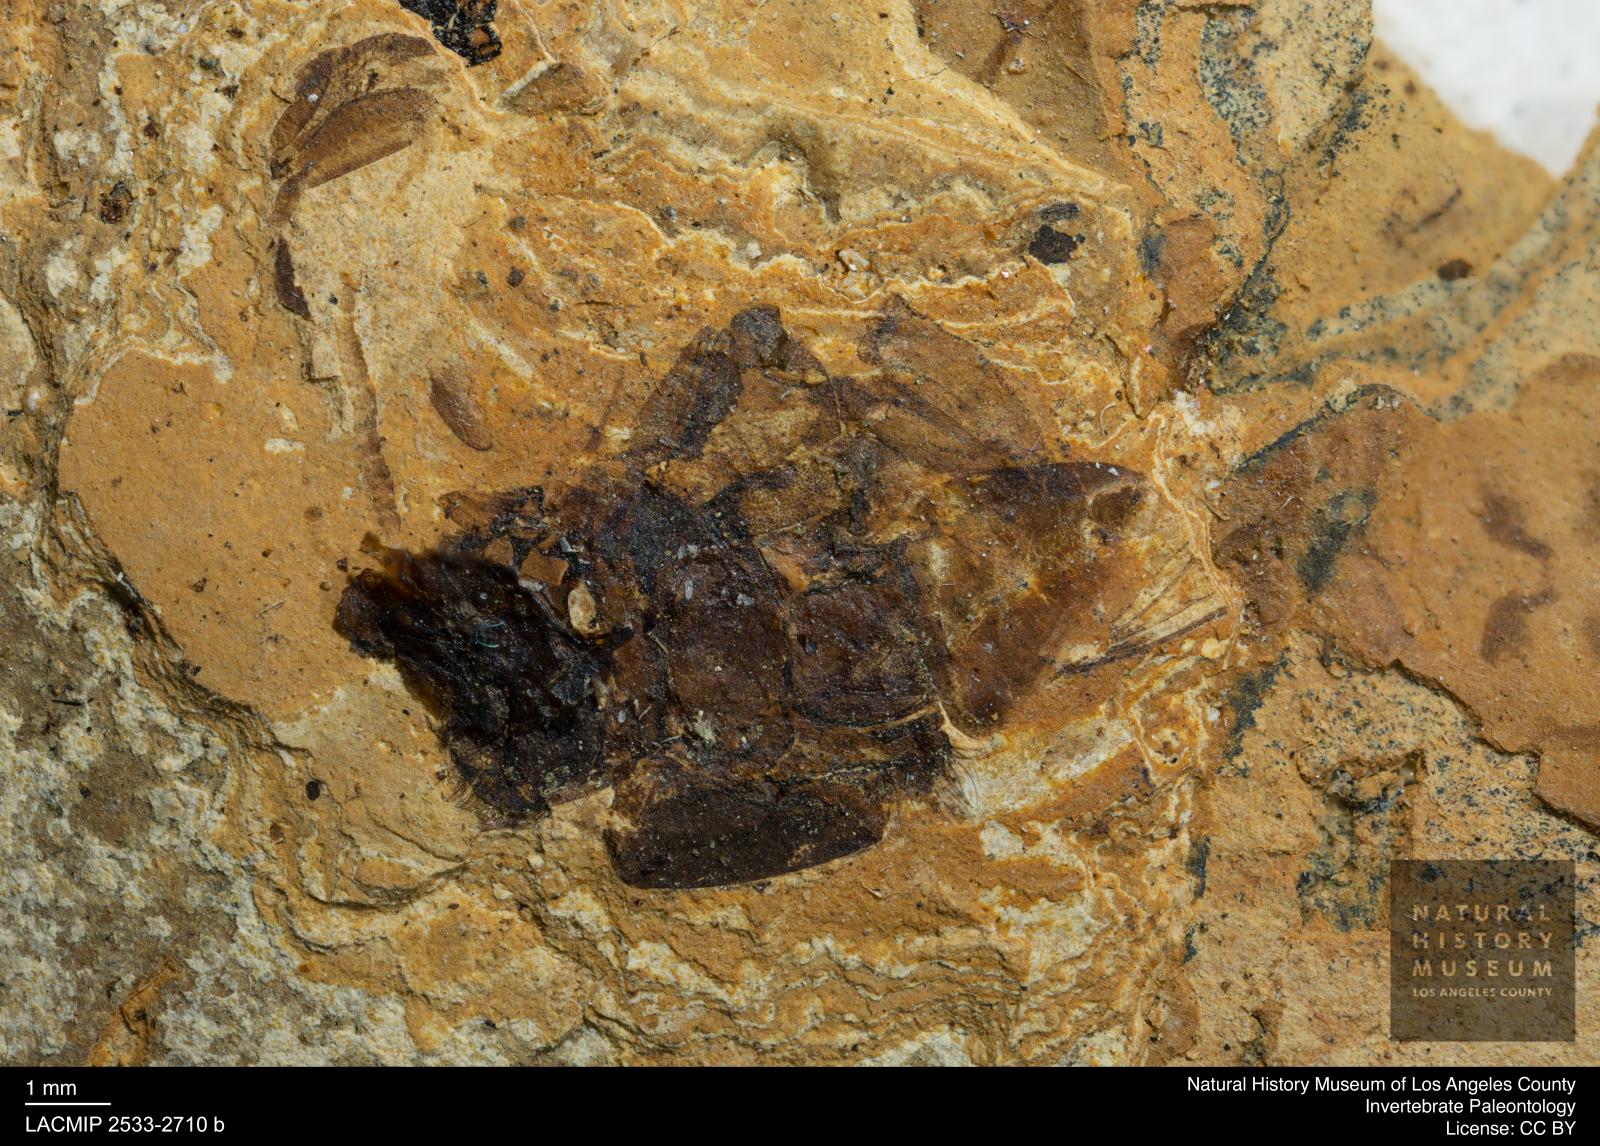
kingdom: Animalia
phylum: Arthropoda
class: Insecta
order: Hymenoptera
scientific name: Hymenoptera
